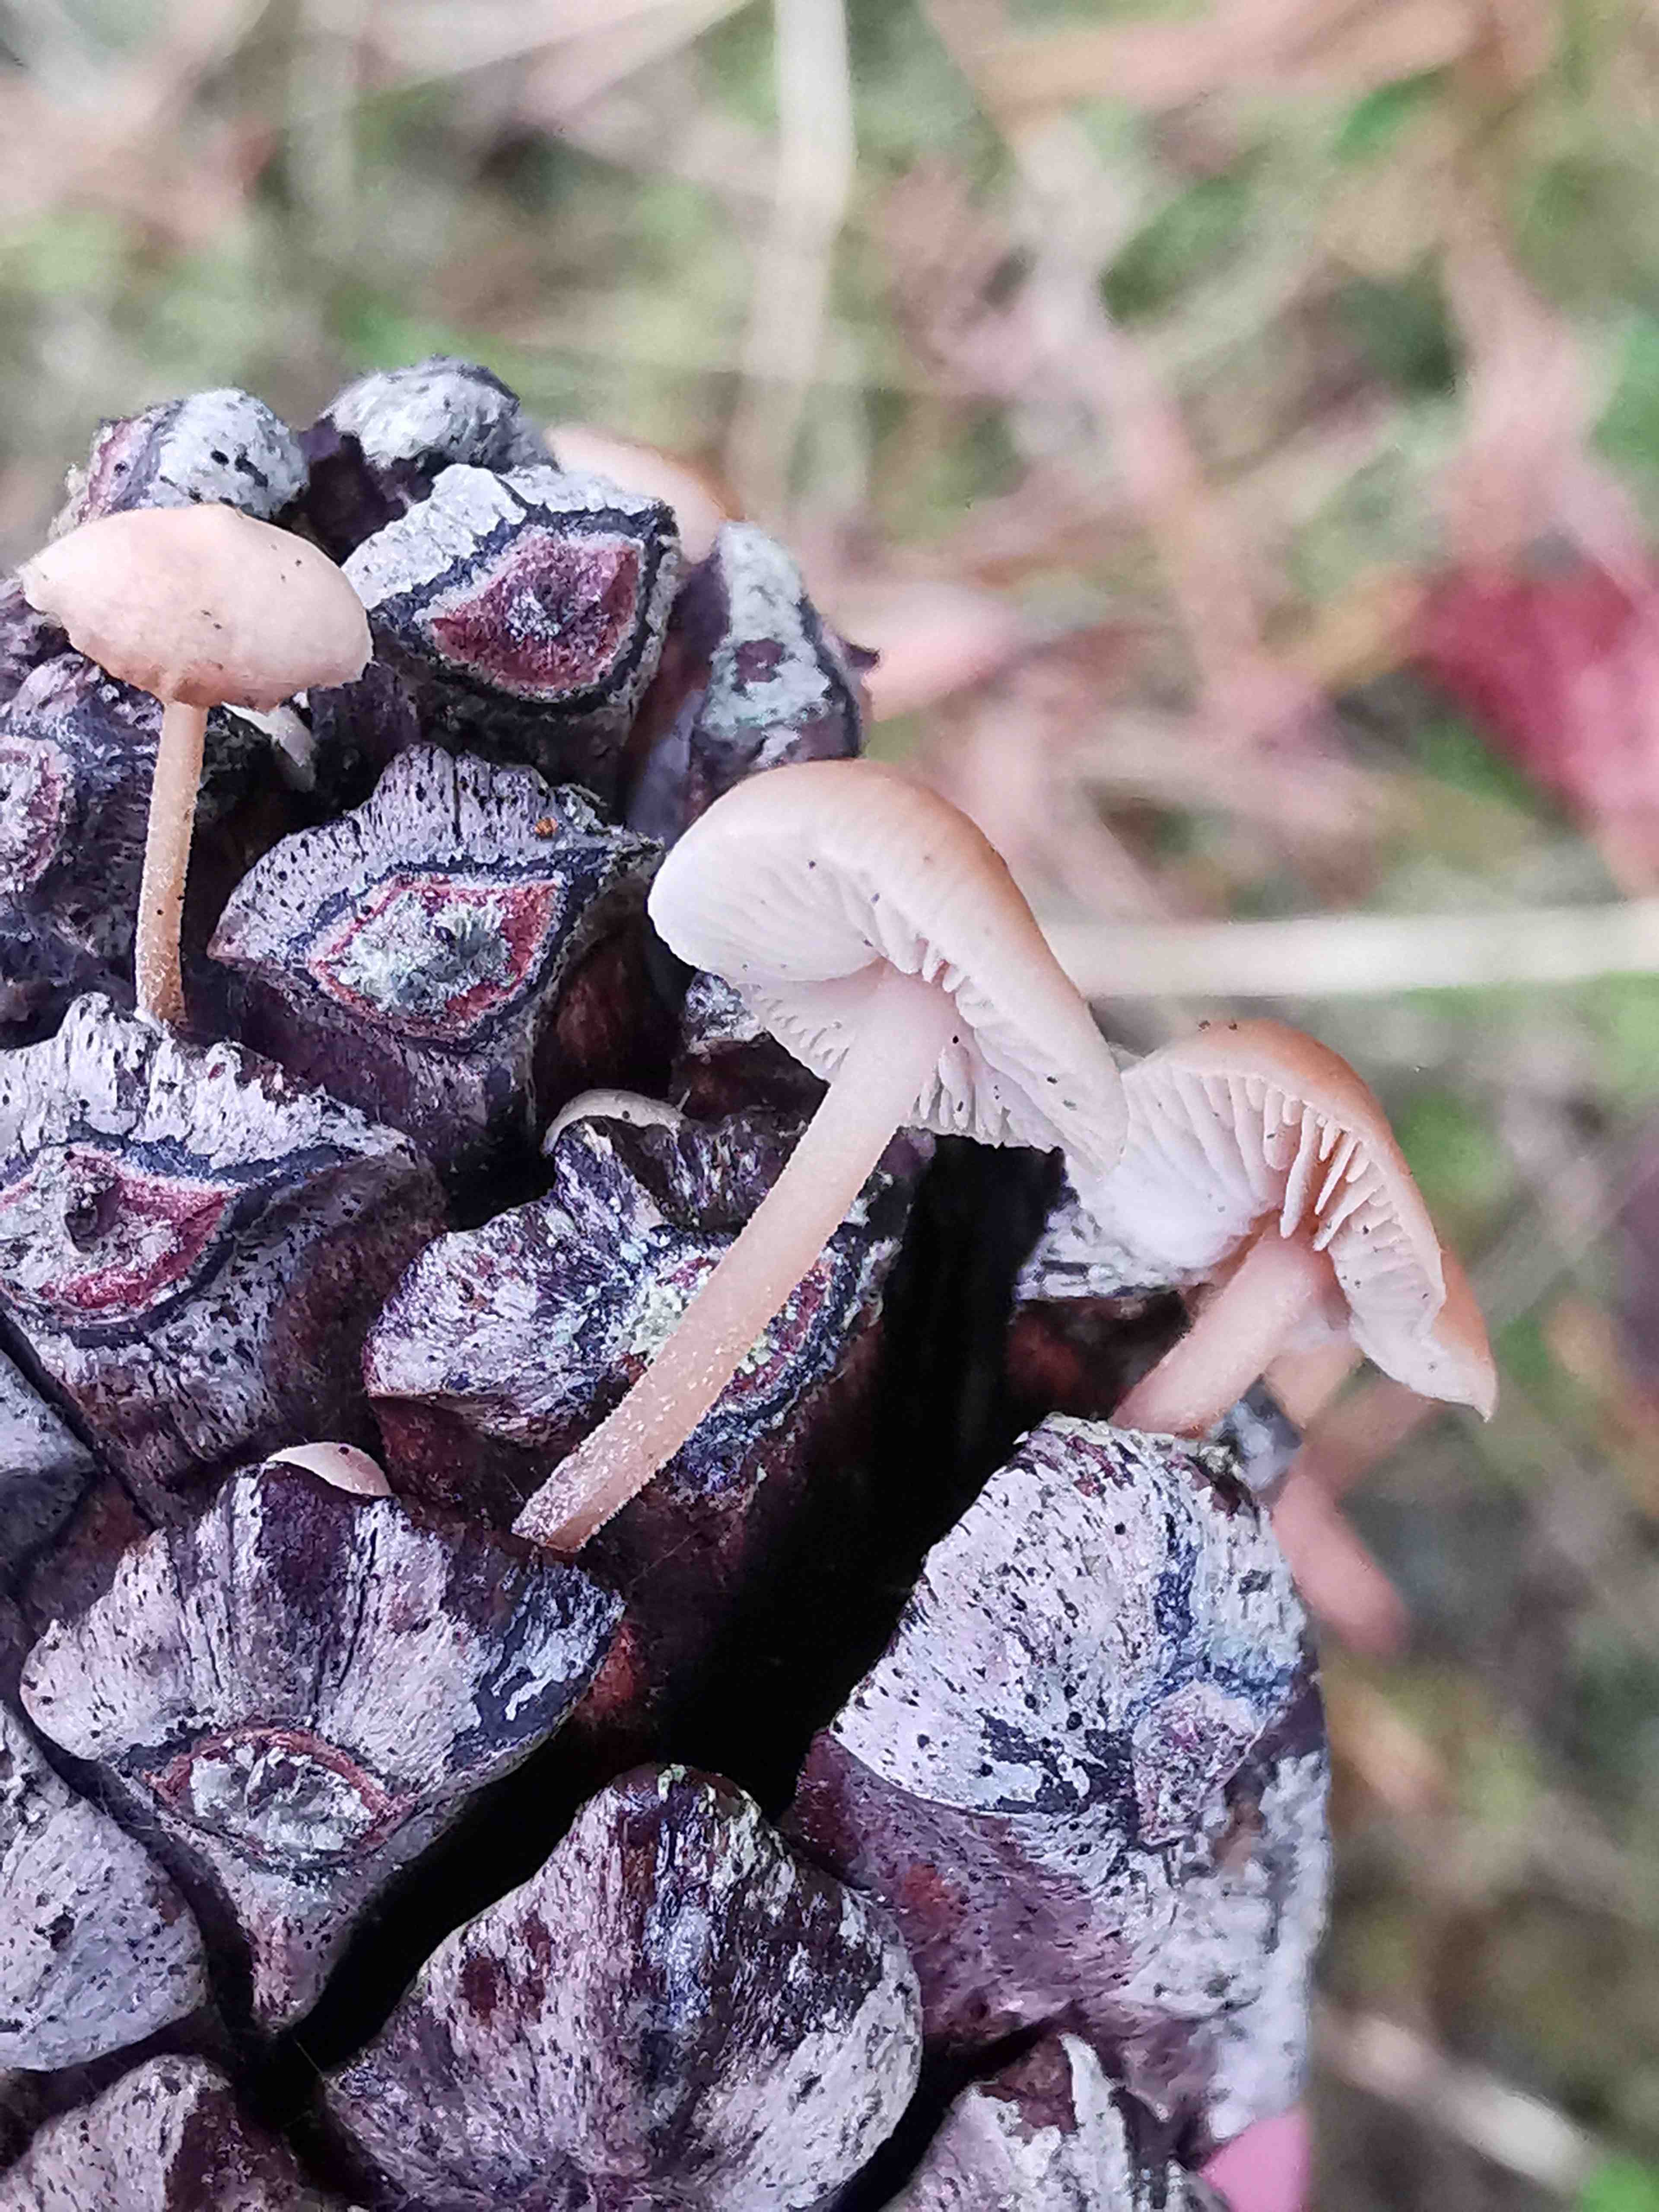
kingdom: Fungi
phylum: Basidiomycota
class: Agaricomycetes
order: Agaricales
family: Marasmiaceae
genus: Baeospora
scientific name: Baeospora myosura
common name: koglebruskhat
